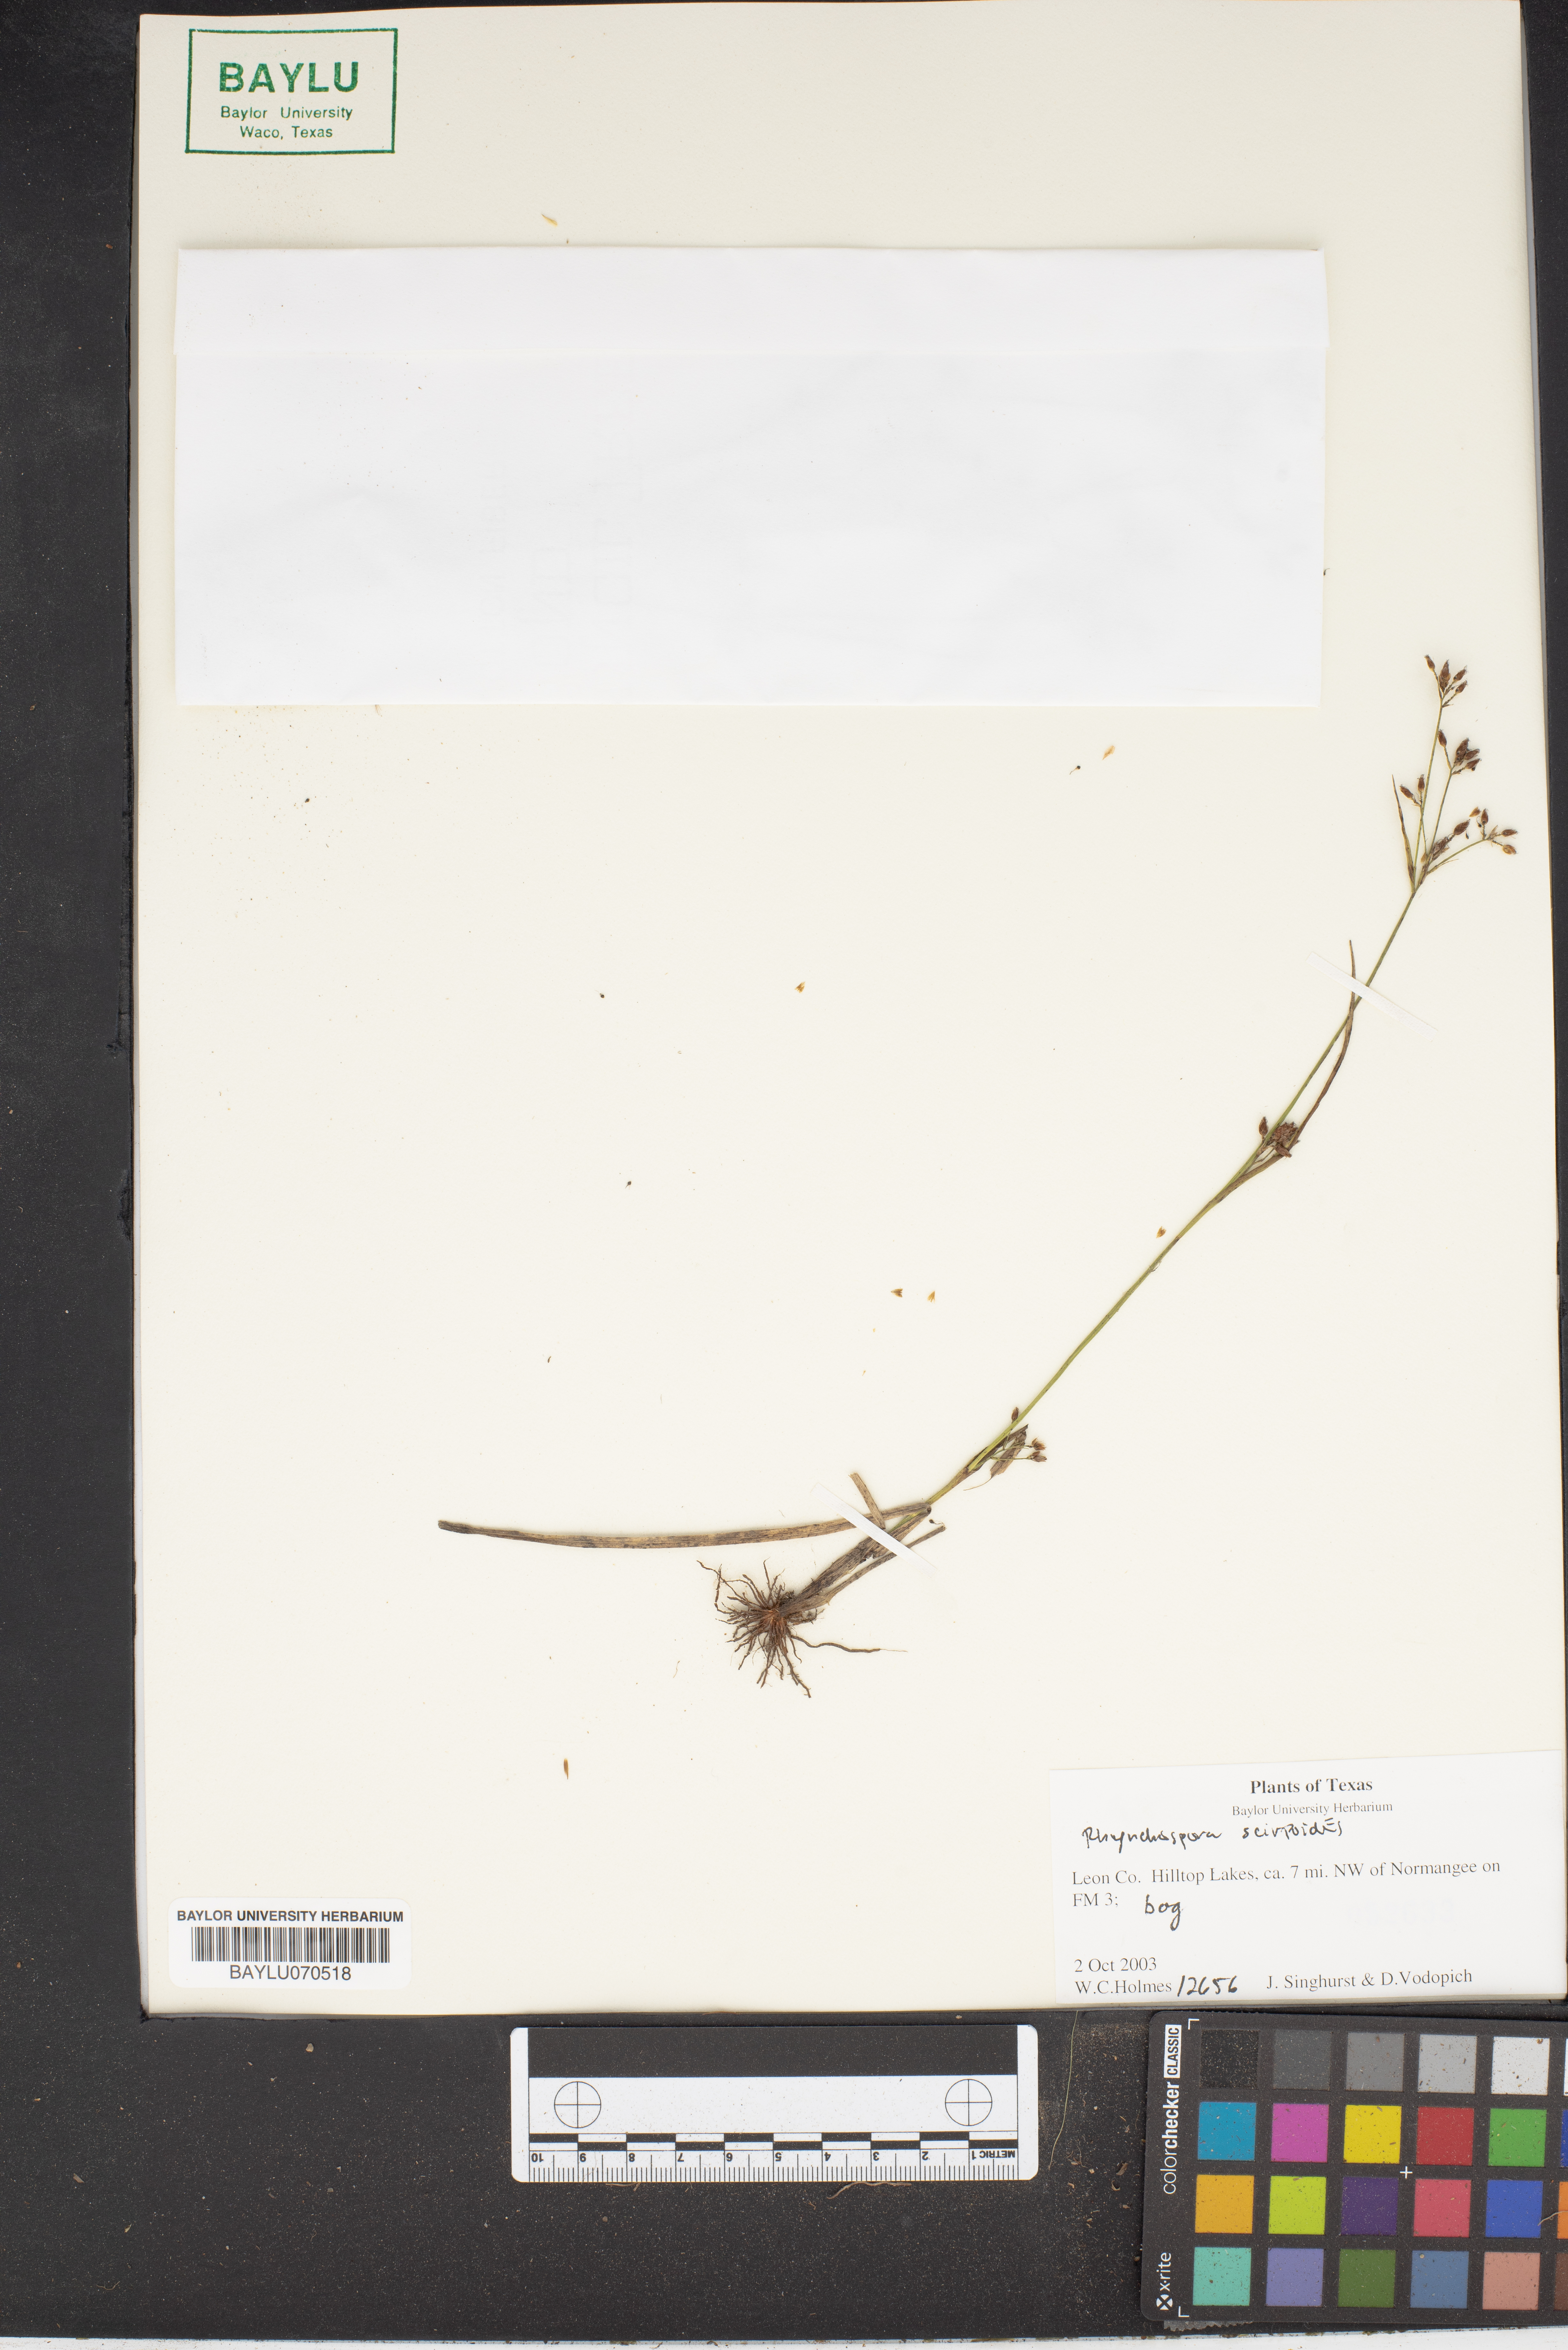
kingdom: Plantae
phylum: Tracheophyta
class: Liliopsida
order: Poales
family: Cyperaceae
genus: Rhynchospora
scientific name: Rhynchospora scirpoides
